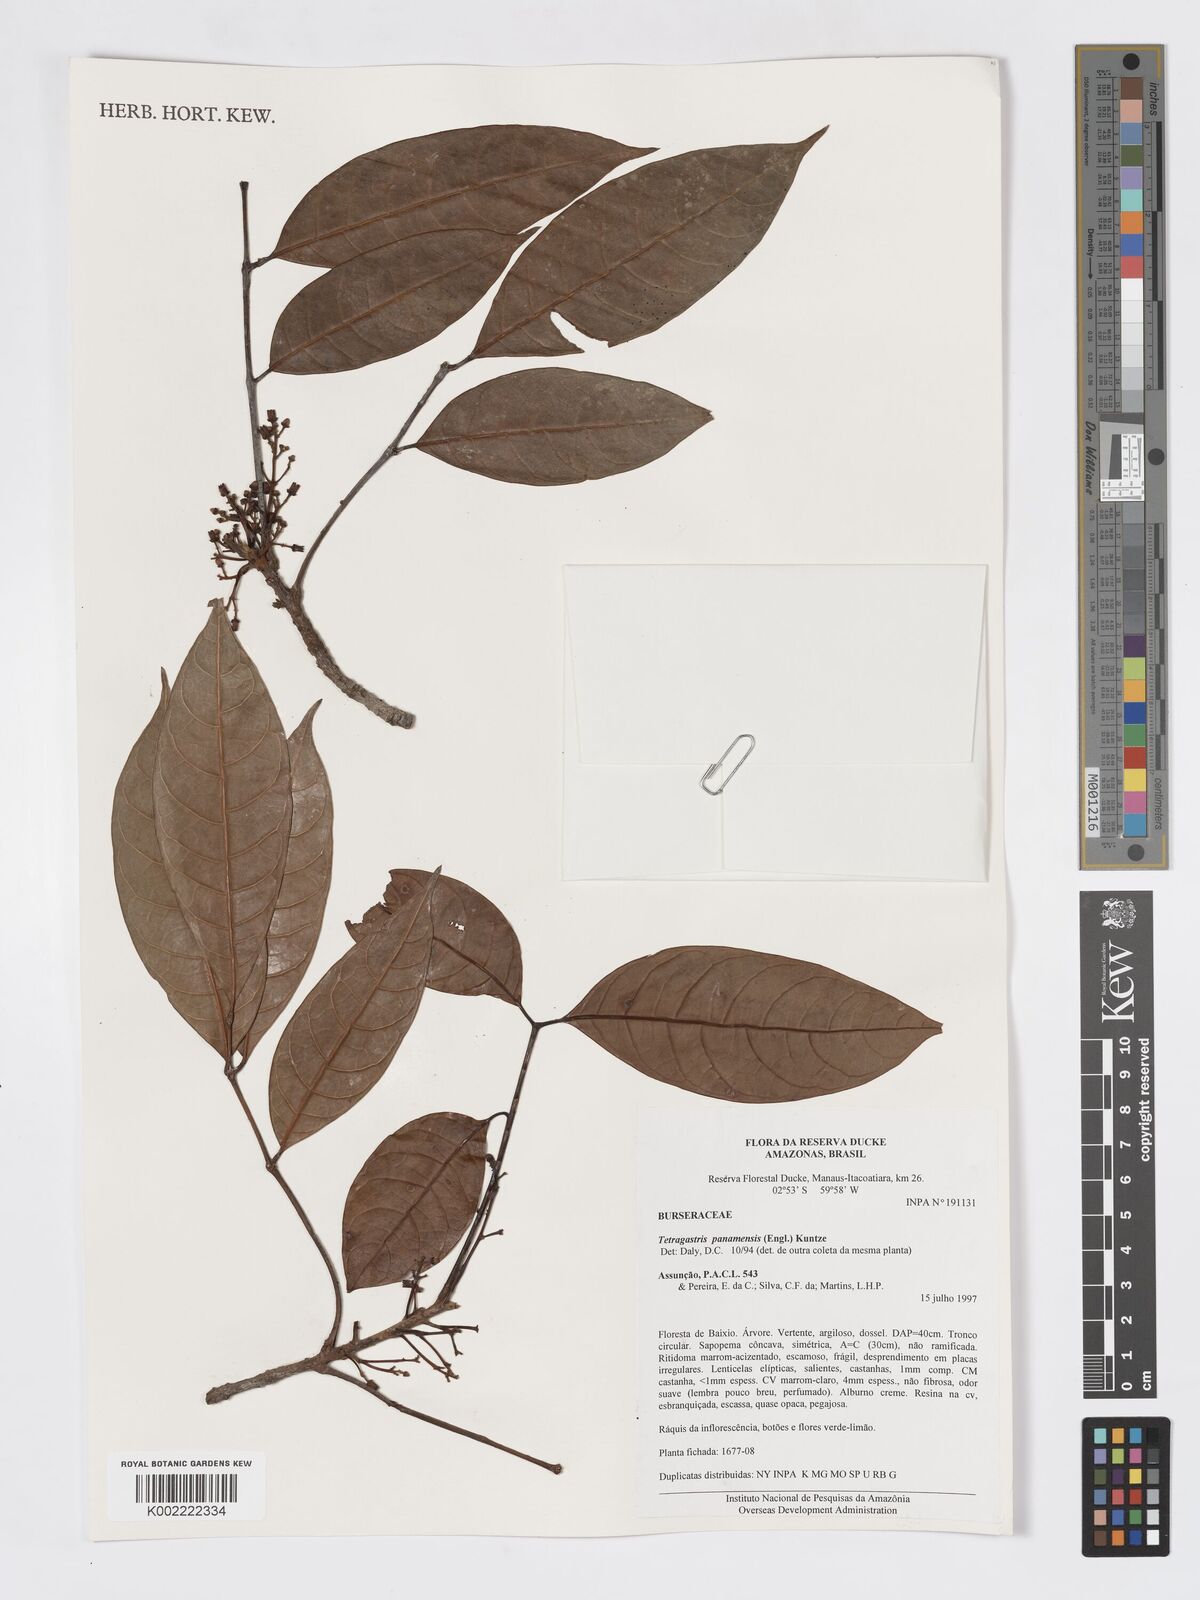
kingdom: Plantae
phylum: Tracheophyta
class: Magnoliopsida
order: Sapindales
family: Burseraceae
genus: Tetragastris
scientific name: Tetragastris panamensis
